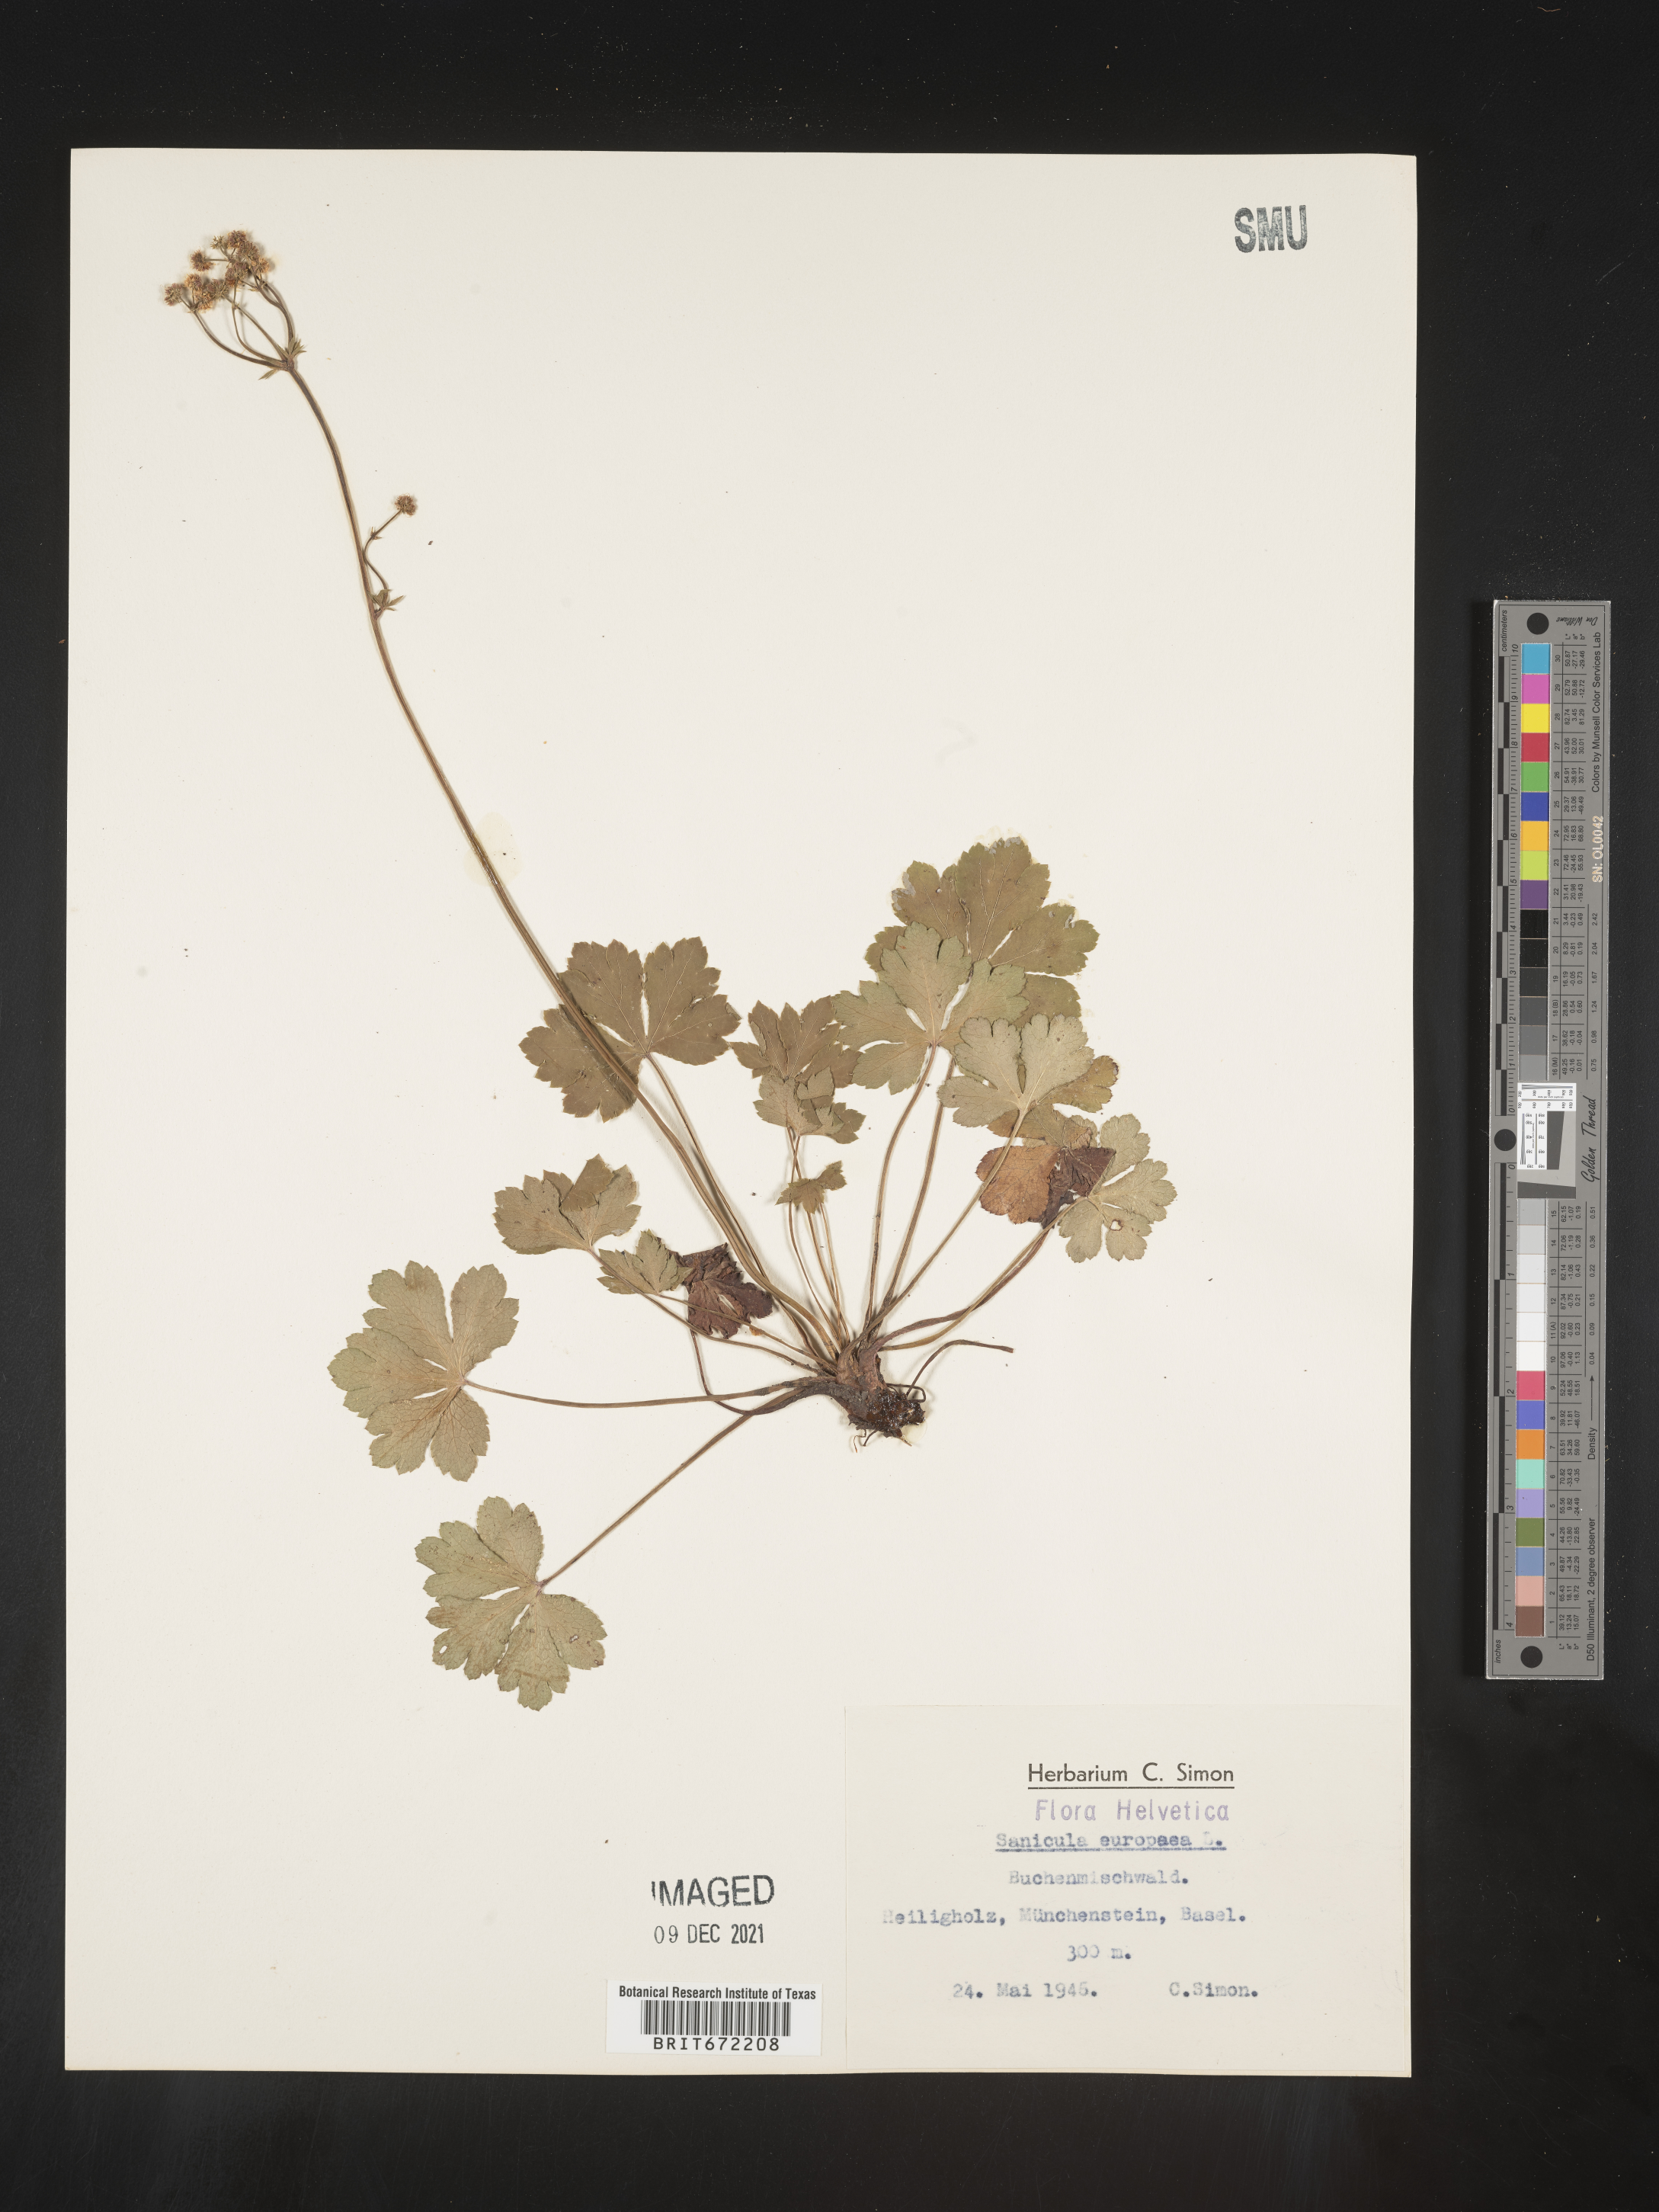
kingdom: Plantae
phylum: Tracheophyta
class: Magnoliopsida
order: Apiales
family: Apiaceae
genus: Sanicula
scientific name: Sanicula
